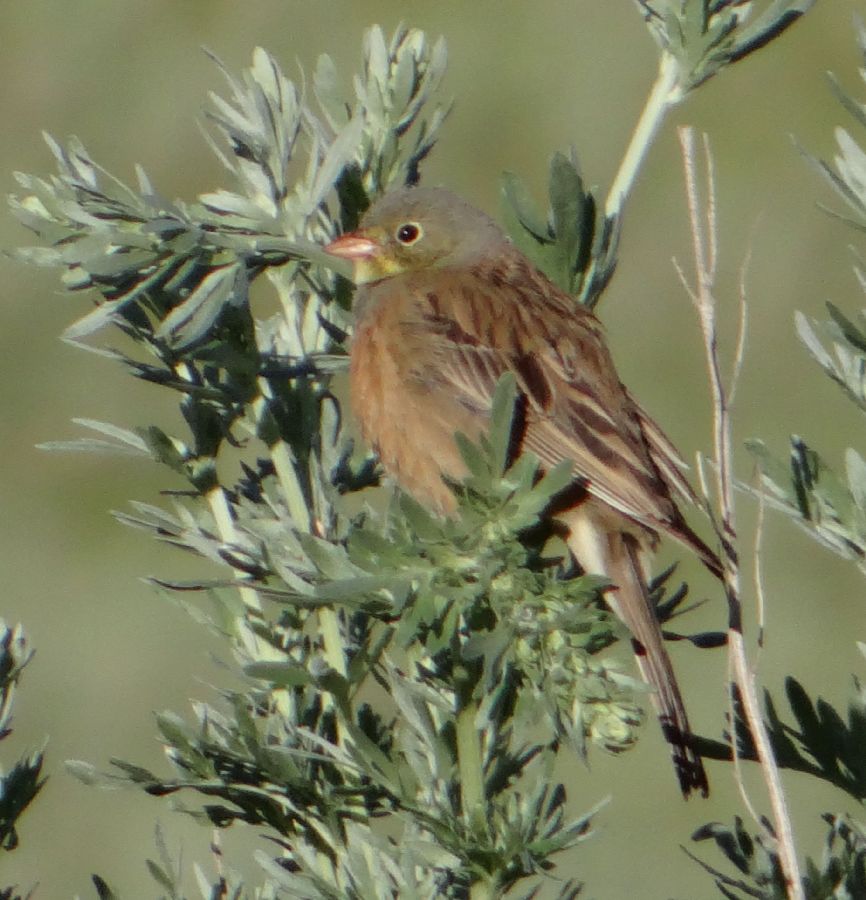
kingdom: Animalia
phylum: Chordata
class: Aves
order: Passeriformes
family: Emberizidae
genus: Emberiza
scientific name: Emberiza hortulana
